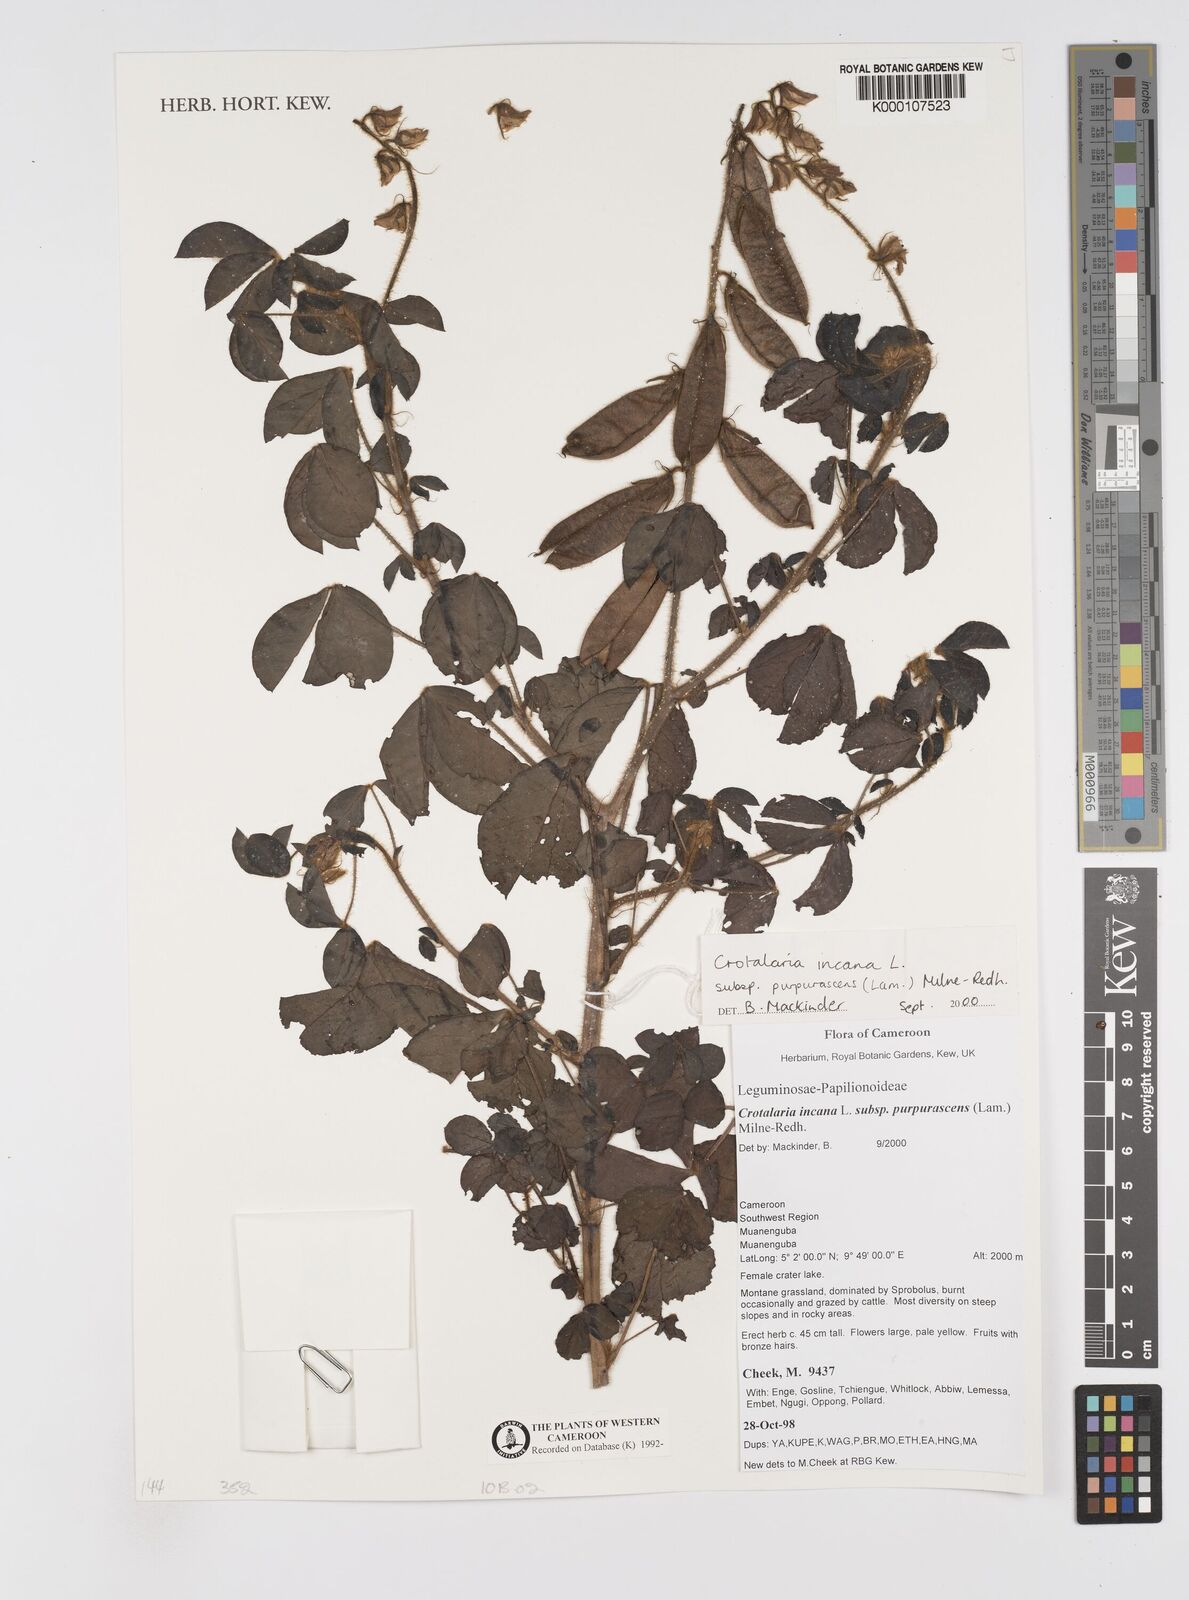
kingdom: Plantae
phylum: Tracheophyta
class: Magnoliopsida
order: Fabales
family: Fabaceae
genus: Crotalaria
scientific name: Crotalaria incana
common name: Shakeshake
